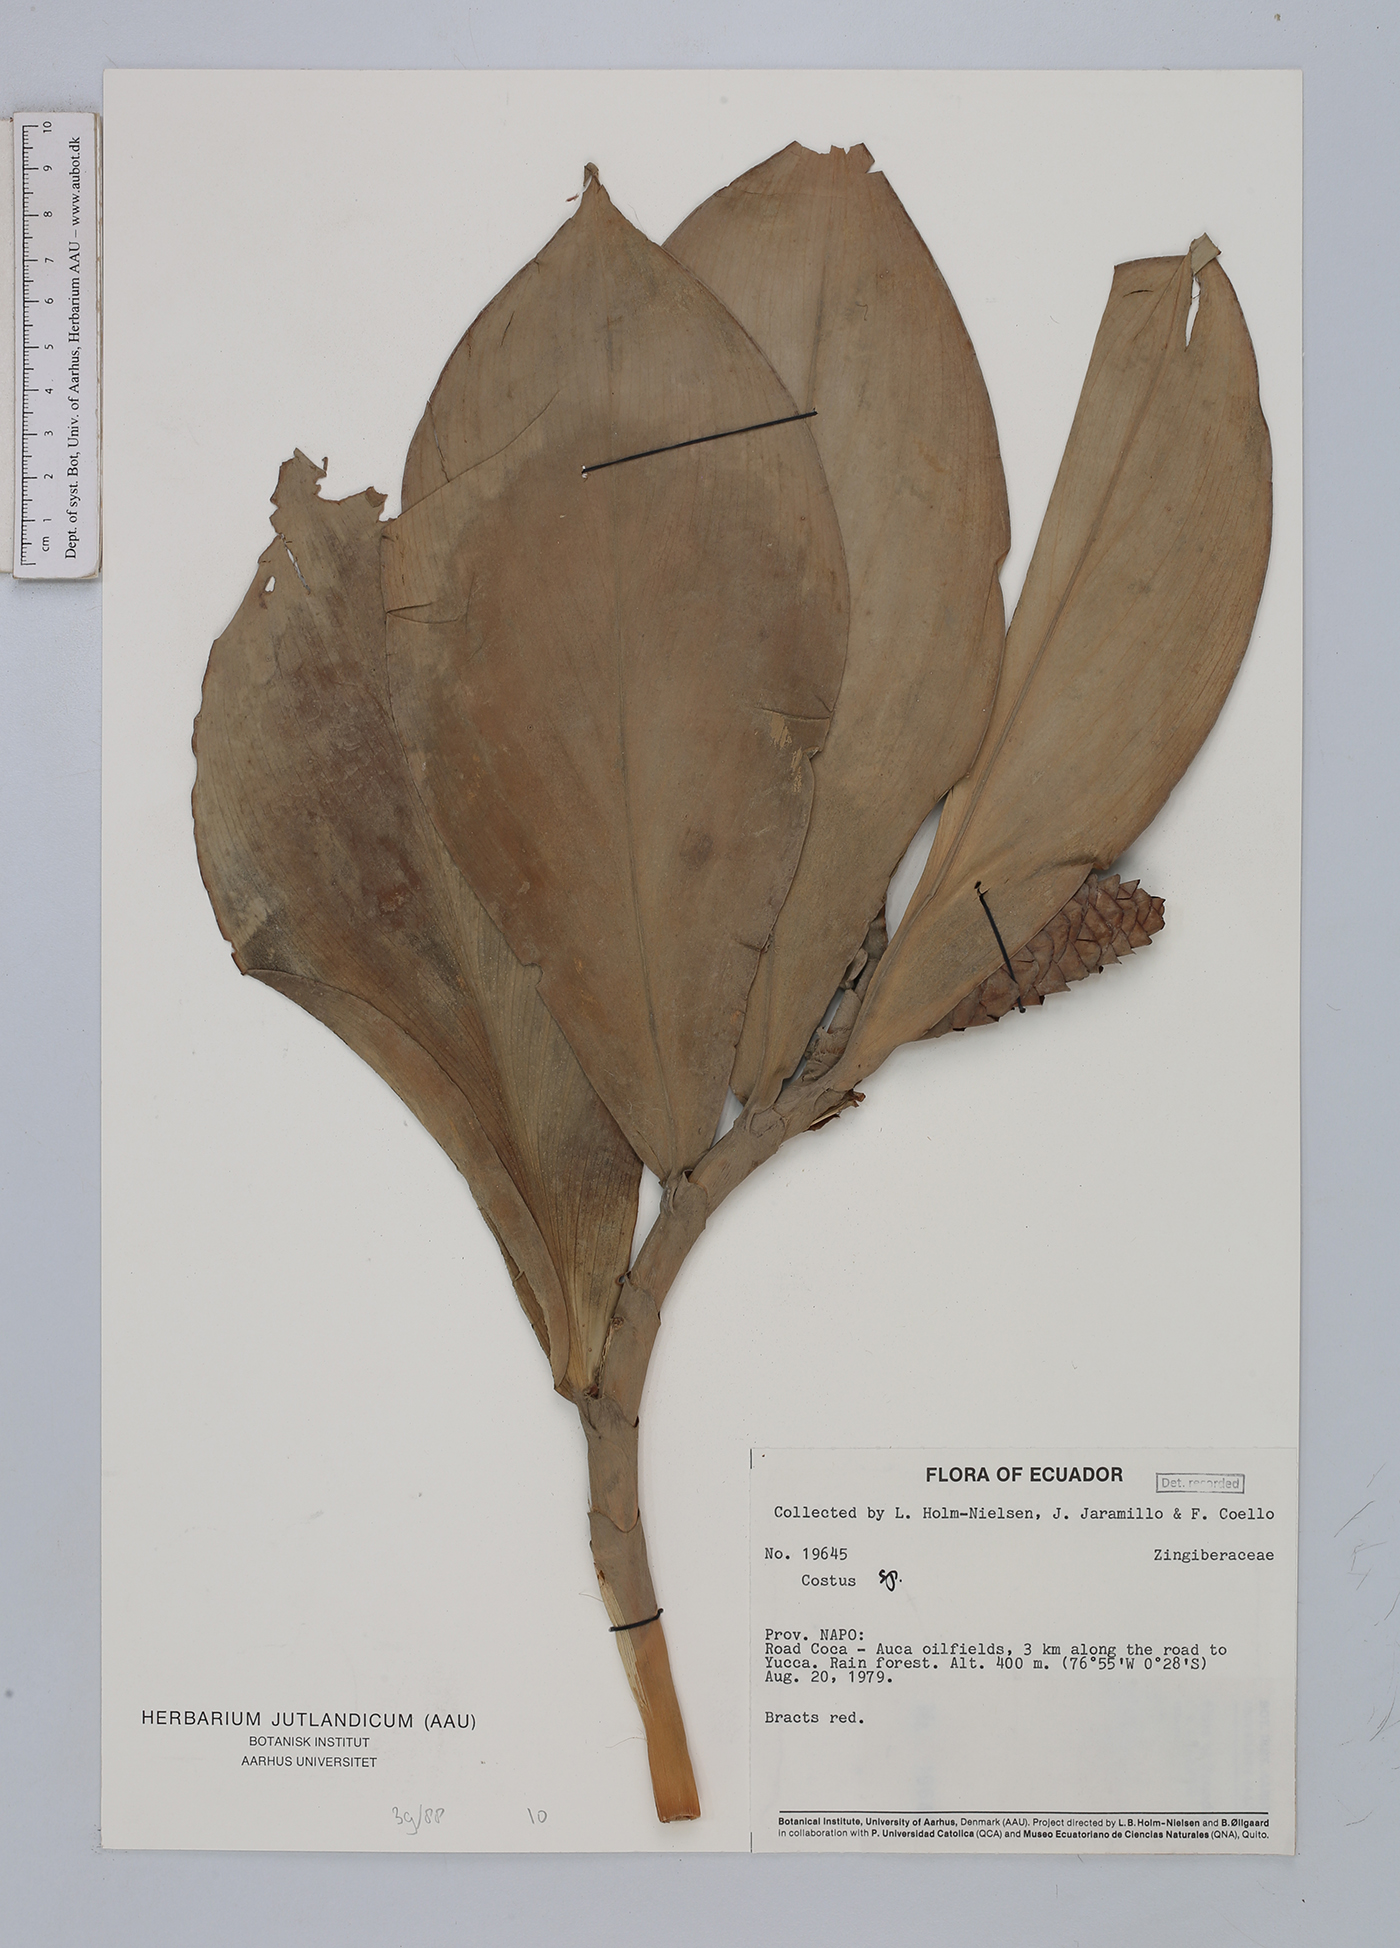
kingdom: Plantae
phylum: Tracheophyta
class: Liliopsida
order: Zingiberales
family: Costaceae
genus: Costus
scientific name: Costus scaber
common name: Spiral head ginger
